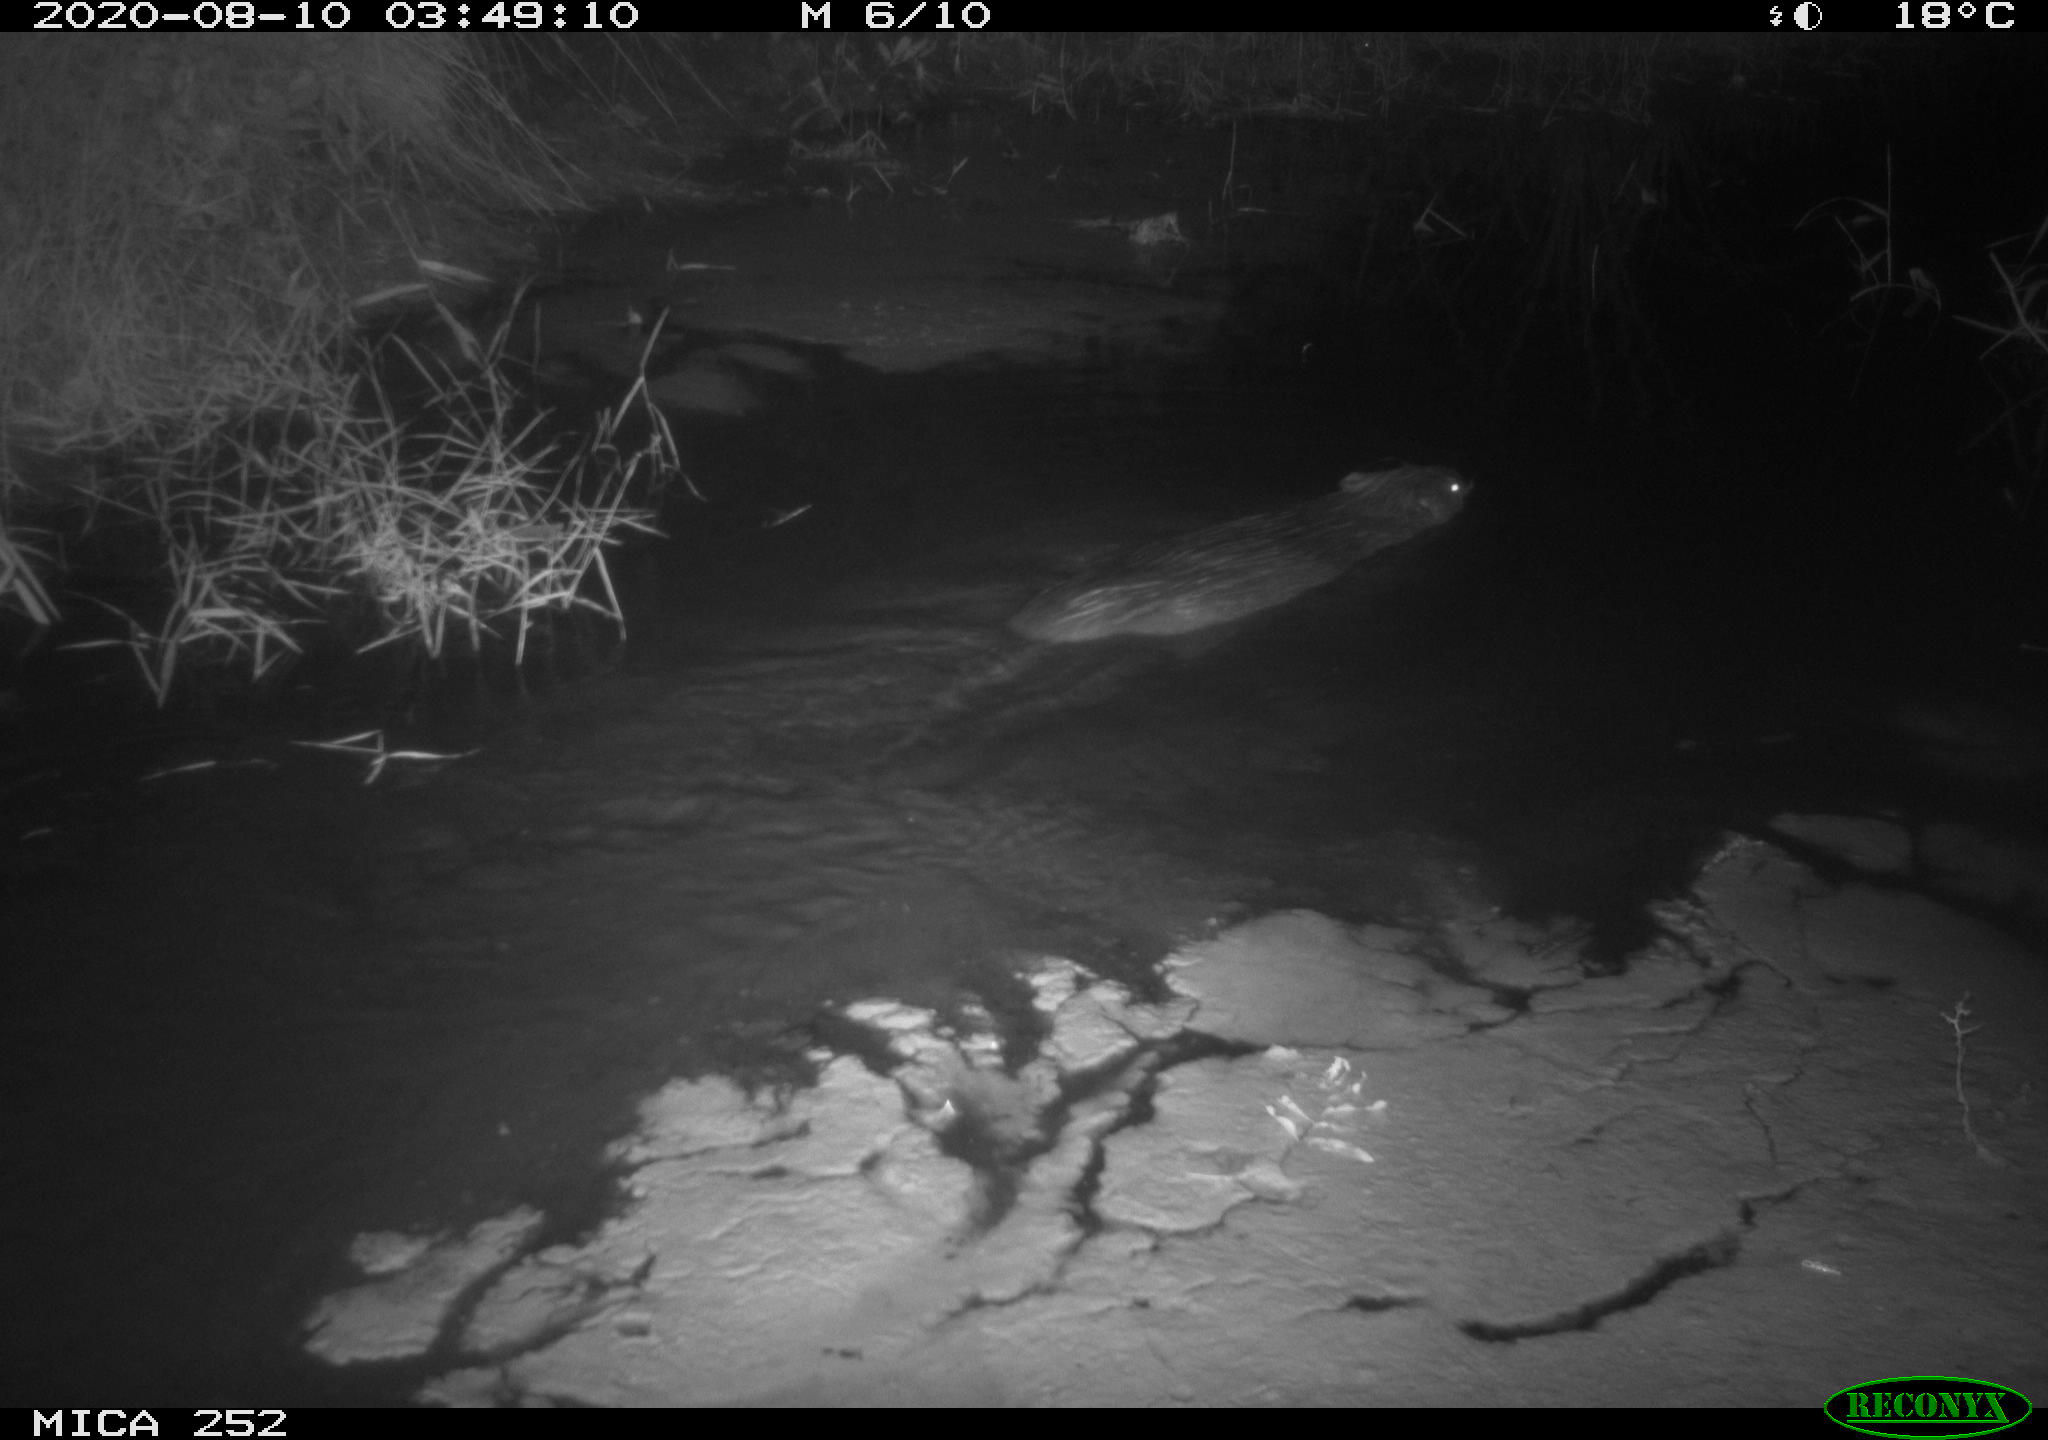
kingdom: Animalia
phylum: Chordata
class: Mammalia
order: Rodentia
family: Castoridae
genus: Castor
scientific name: Castor fiber
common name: Eurasian beaver
